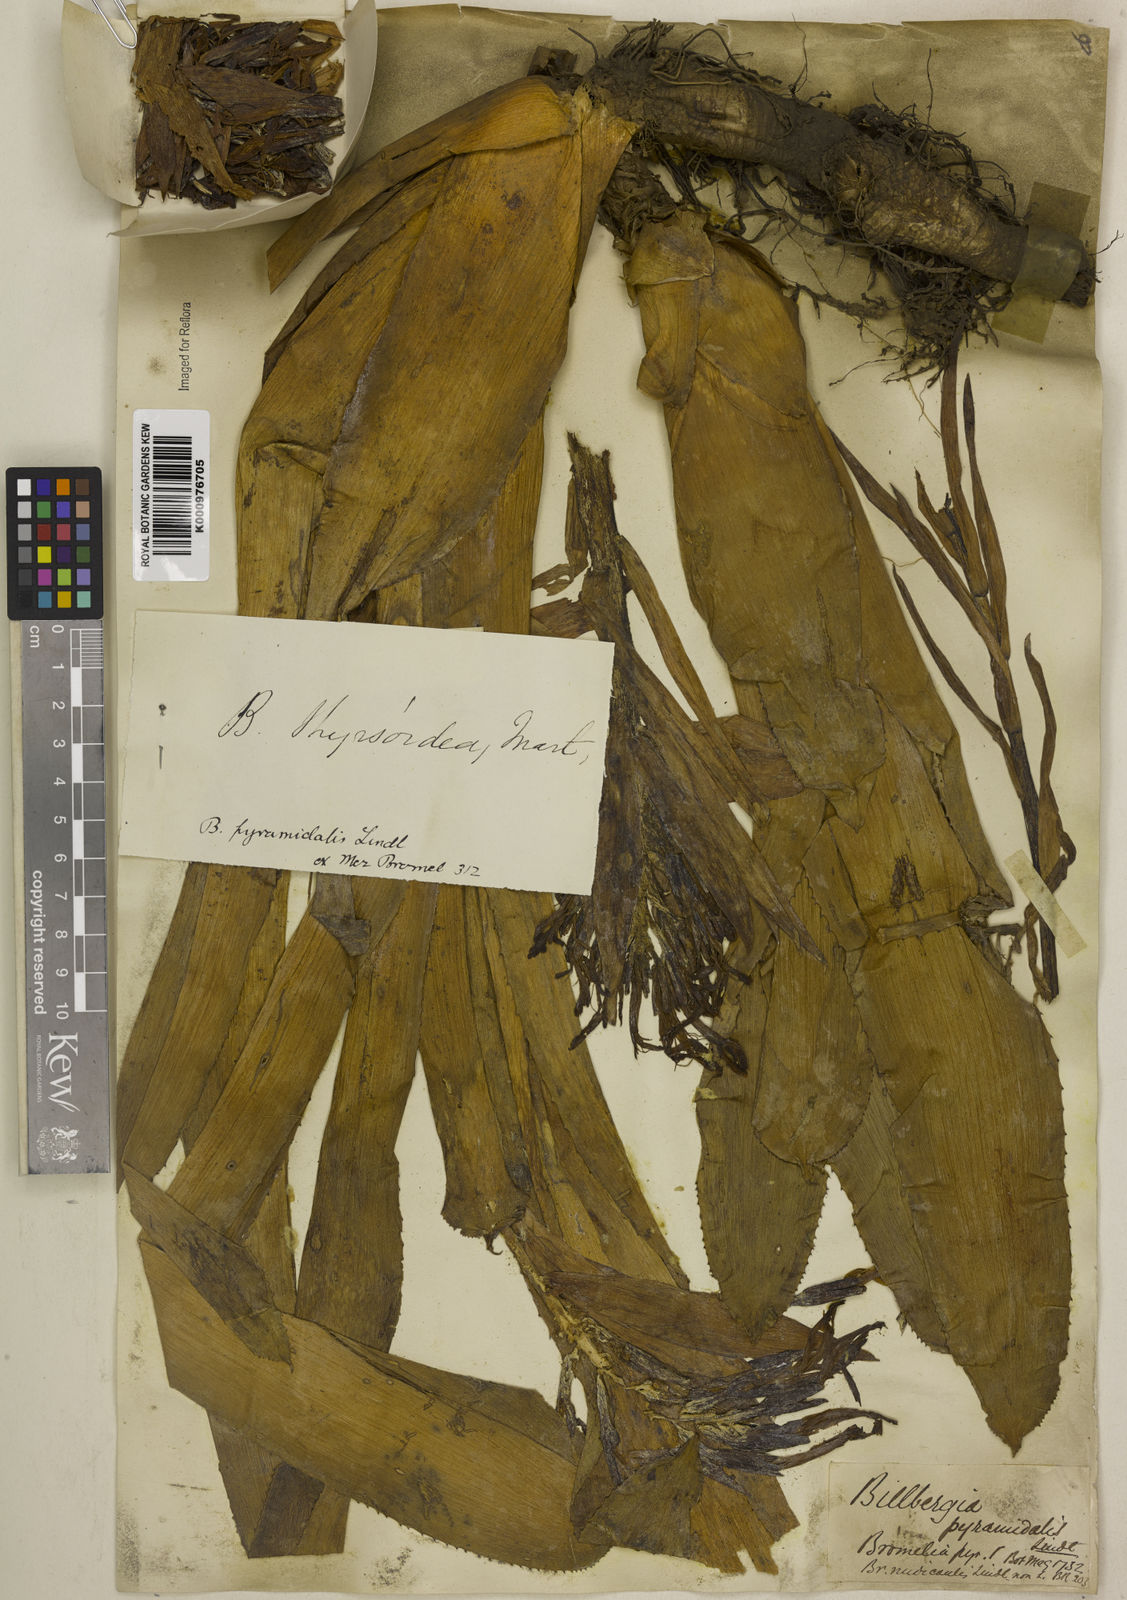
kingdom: Plantae
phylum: Tracheophyta
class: Liliopsida
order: Poales
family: Bromeliaceae
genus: Billbergia
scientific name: Billbergia pyramidalis
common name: Foolproofplant
